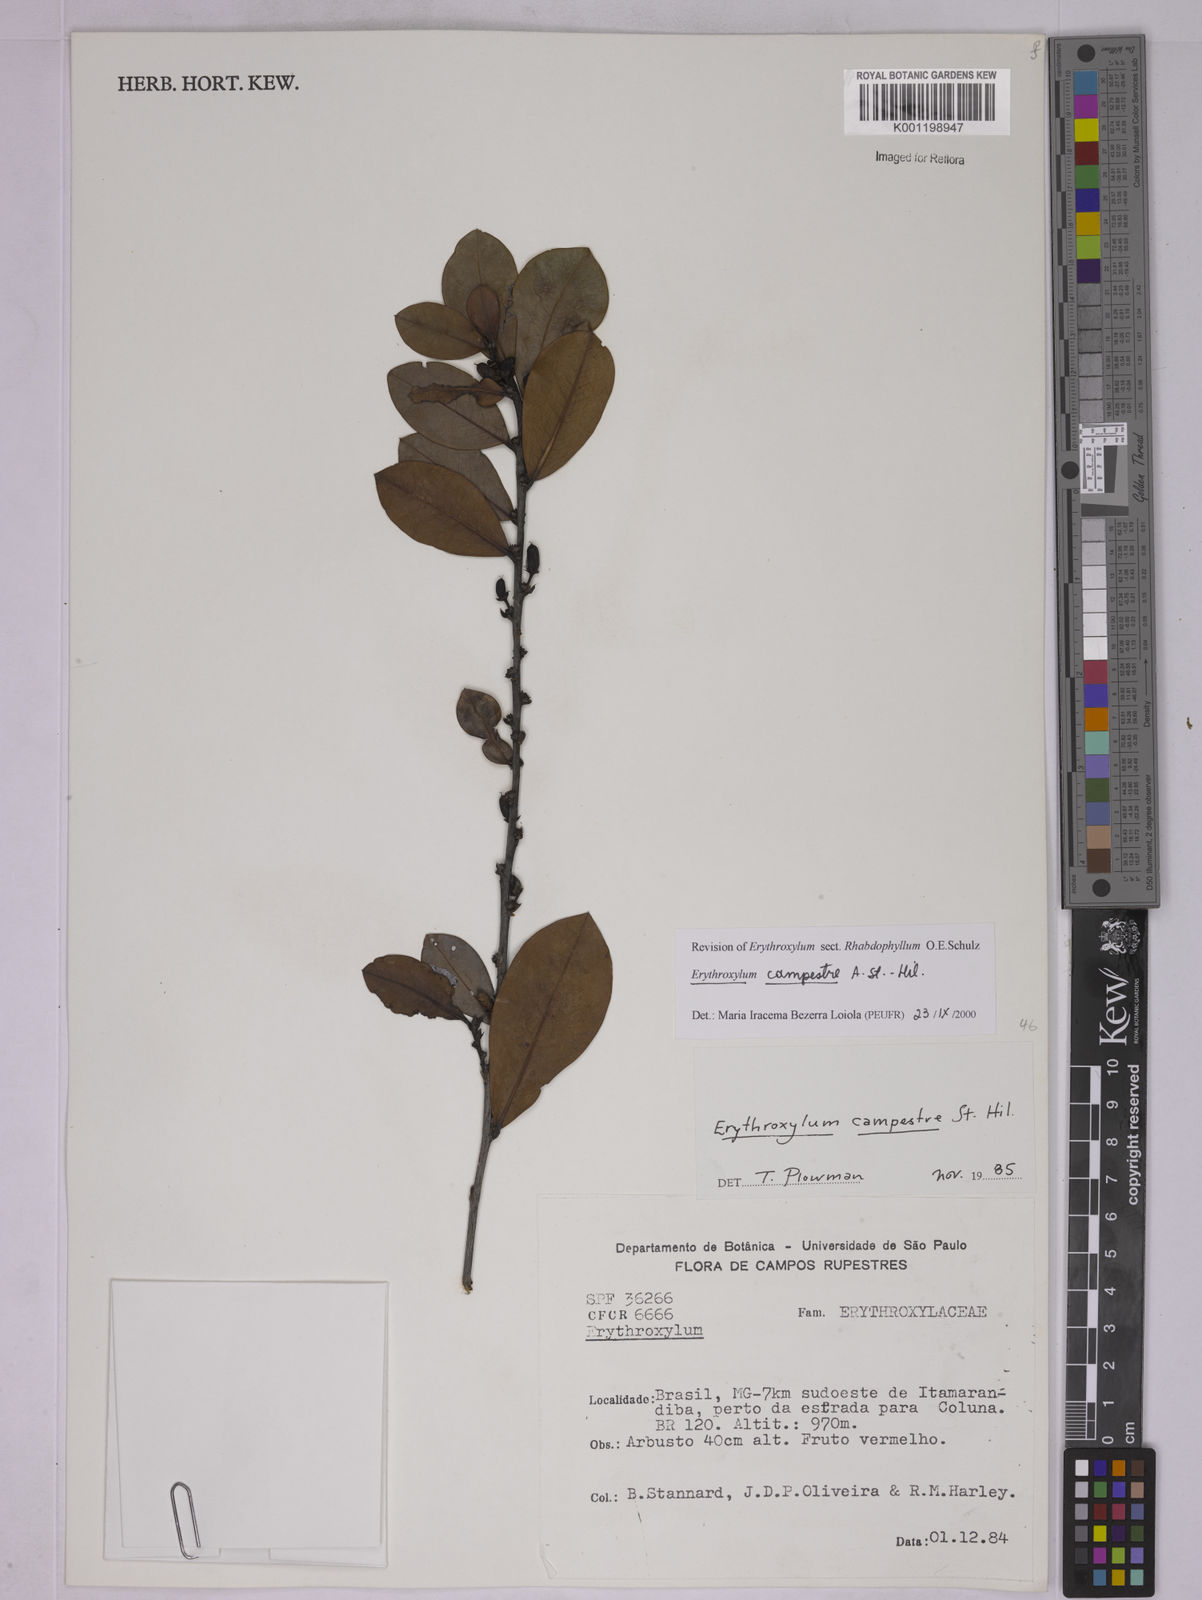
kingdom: Plantae
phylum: Tracheophyta
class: Magnoliopsida
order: Malpighiales
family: Erythroxylaceae
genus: Erythroxylum
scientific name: Erythroxylum campestre
